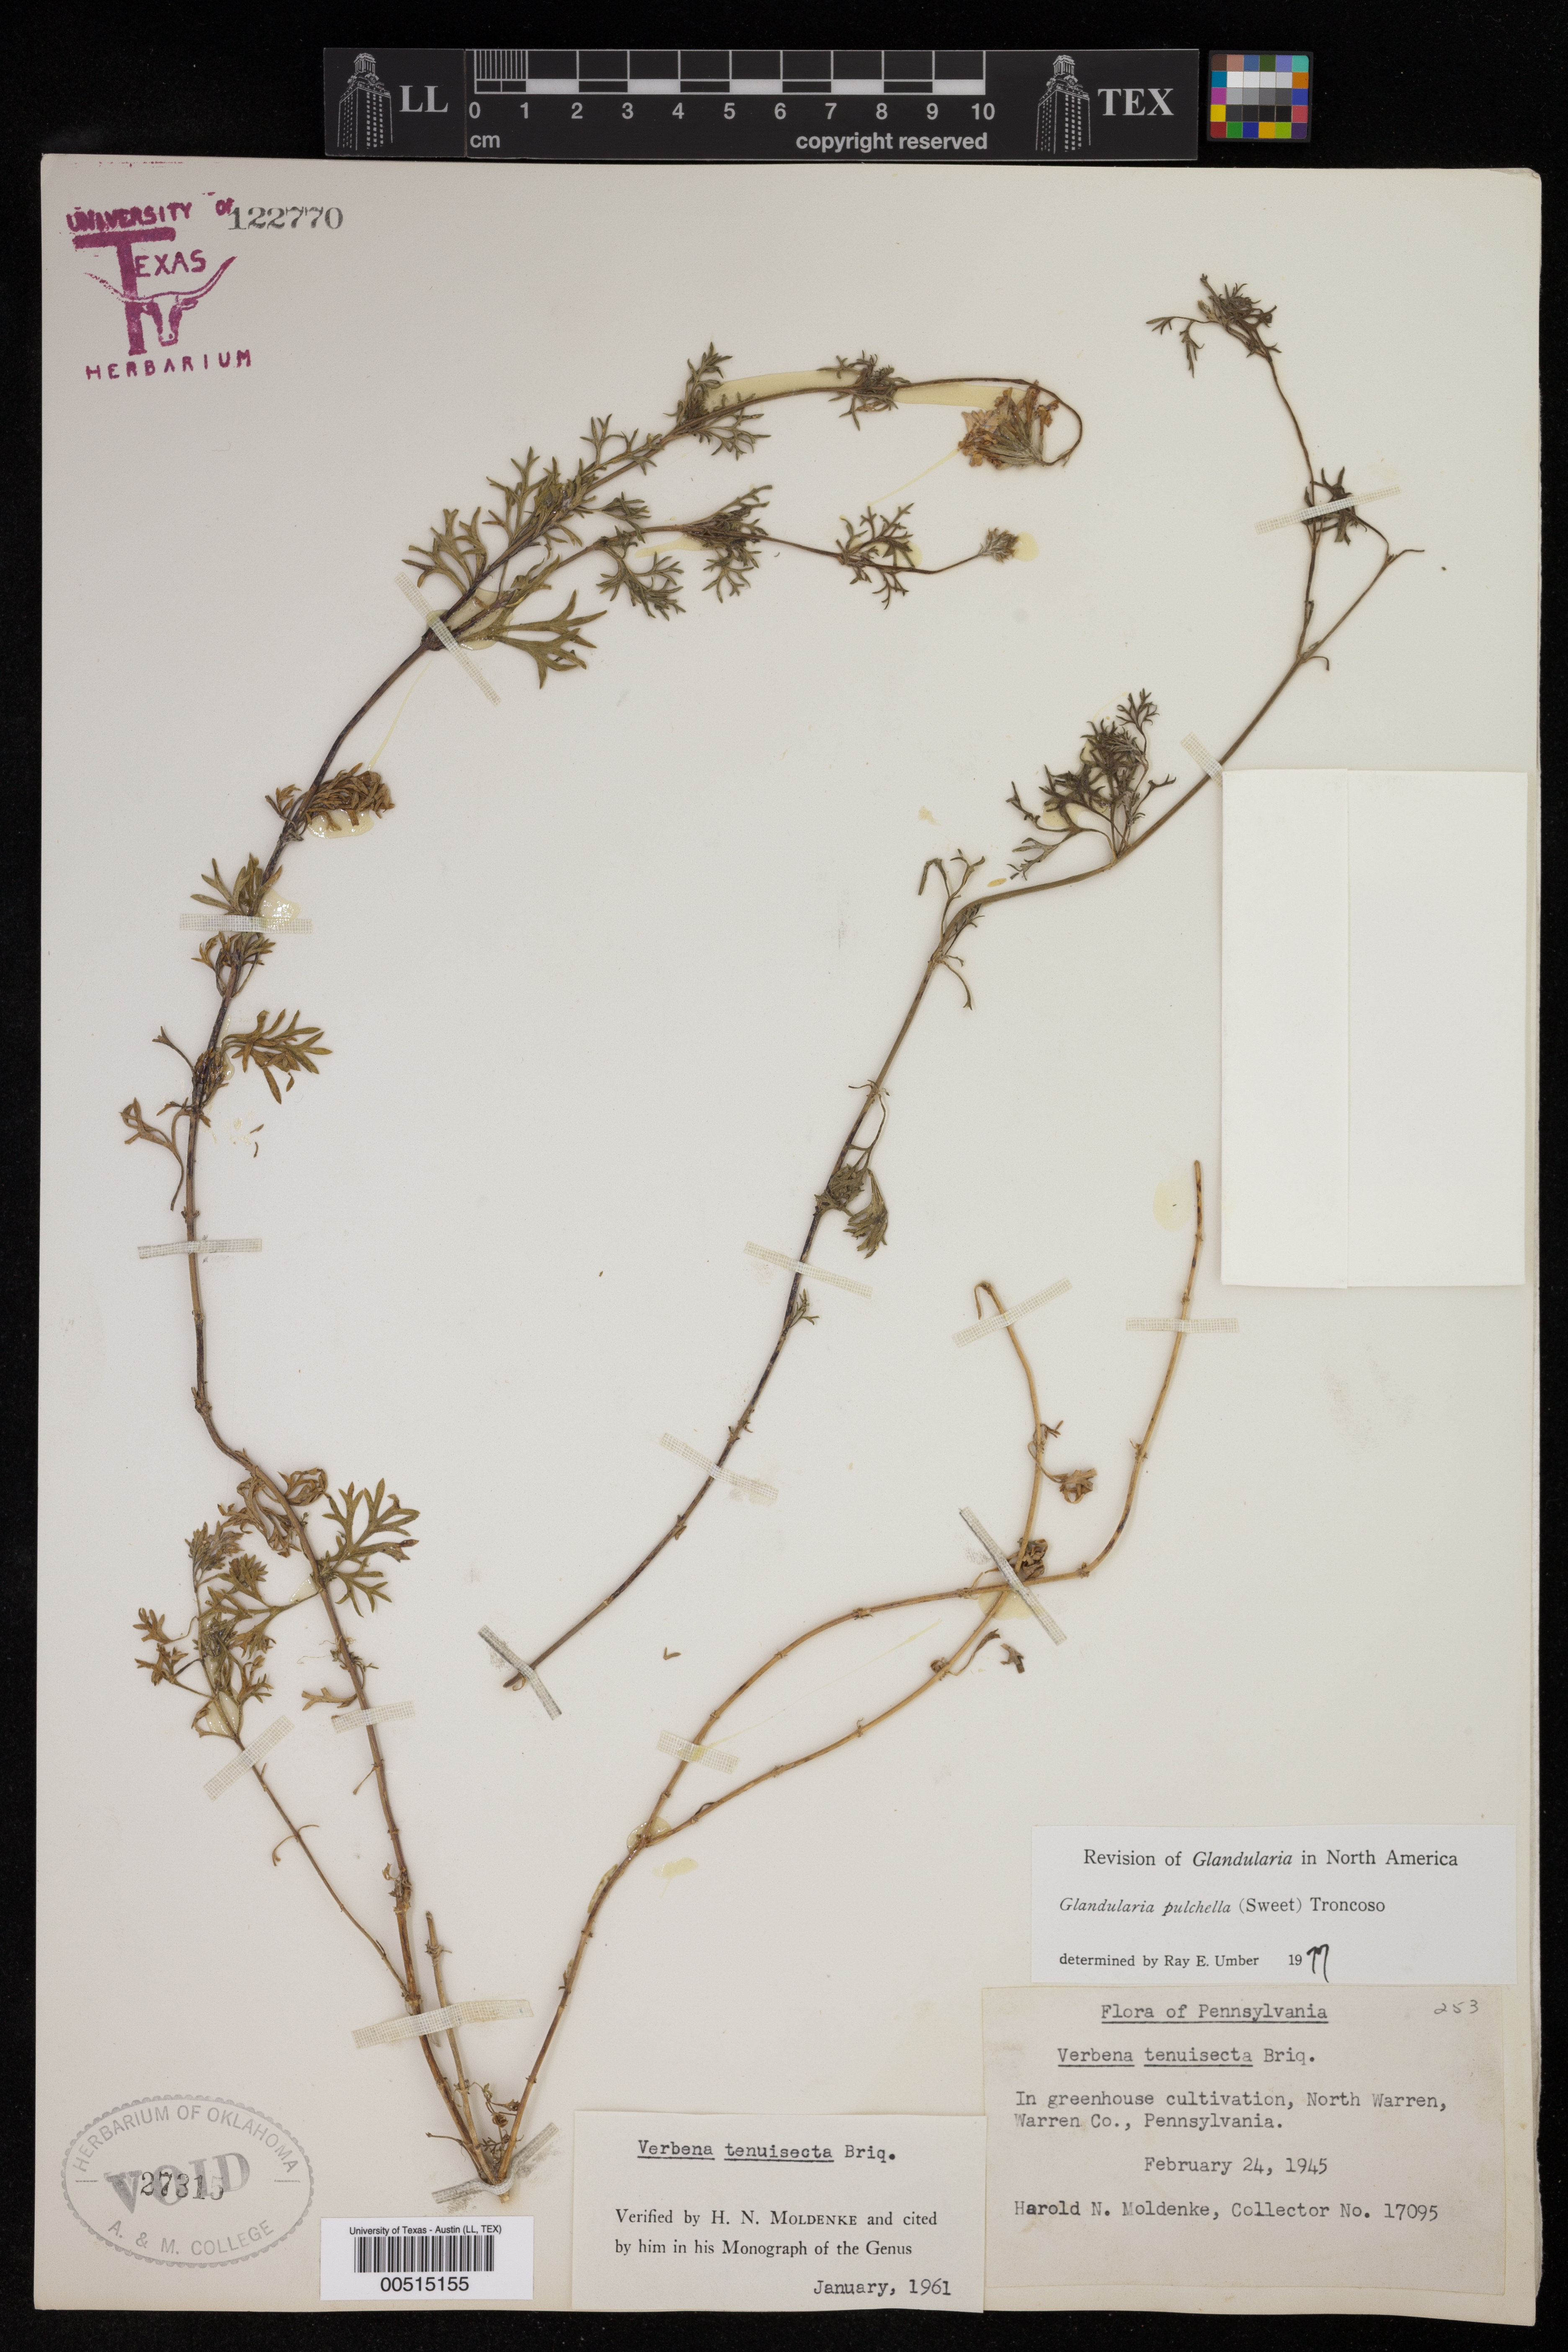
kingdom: Plantae
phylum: Tracheophyta
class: Magnoliopsida
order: Lamiales
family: Verbenaceae
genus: Verbena
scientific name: Verbena tenera
